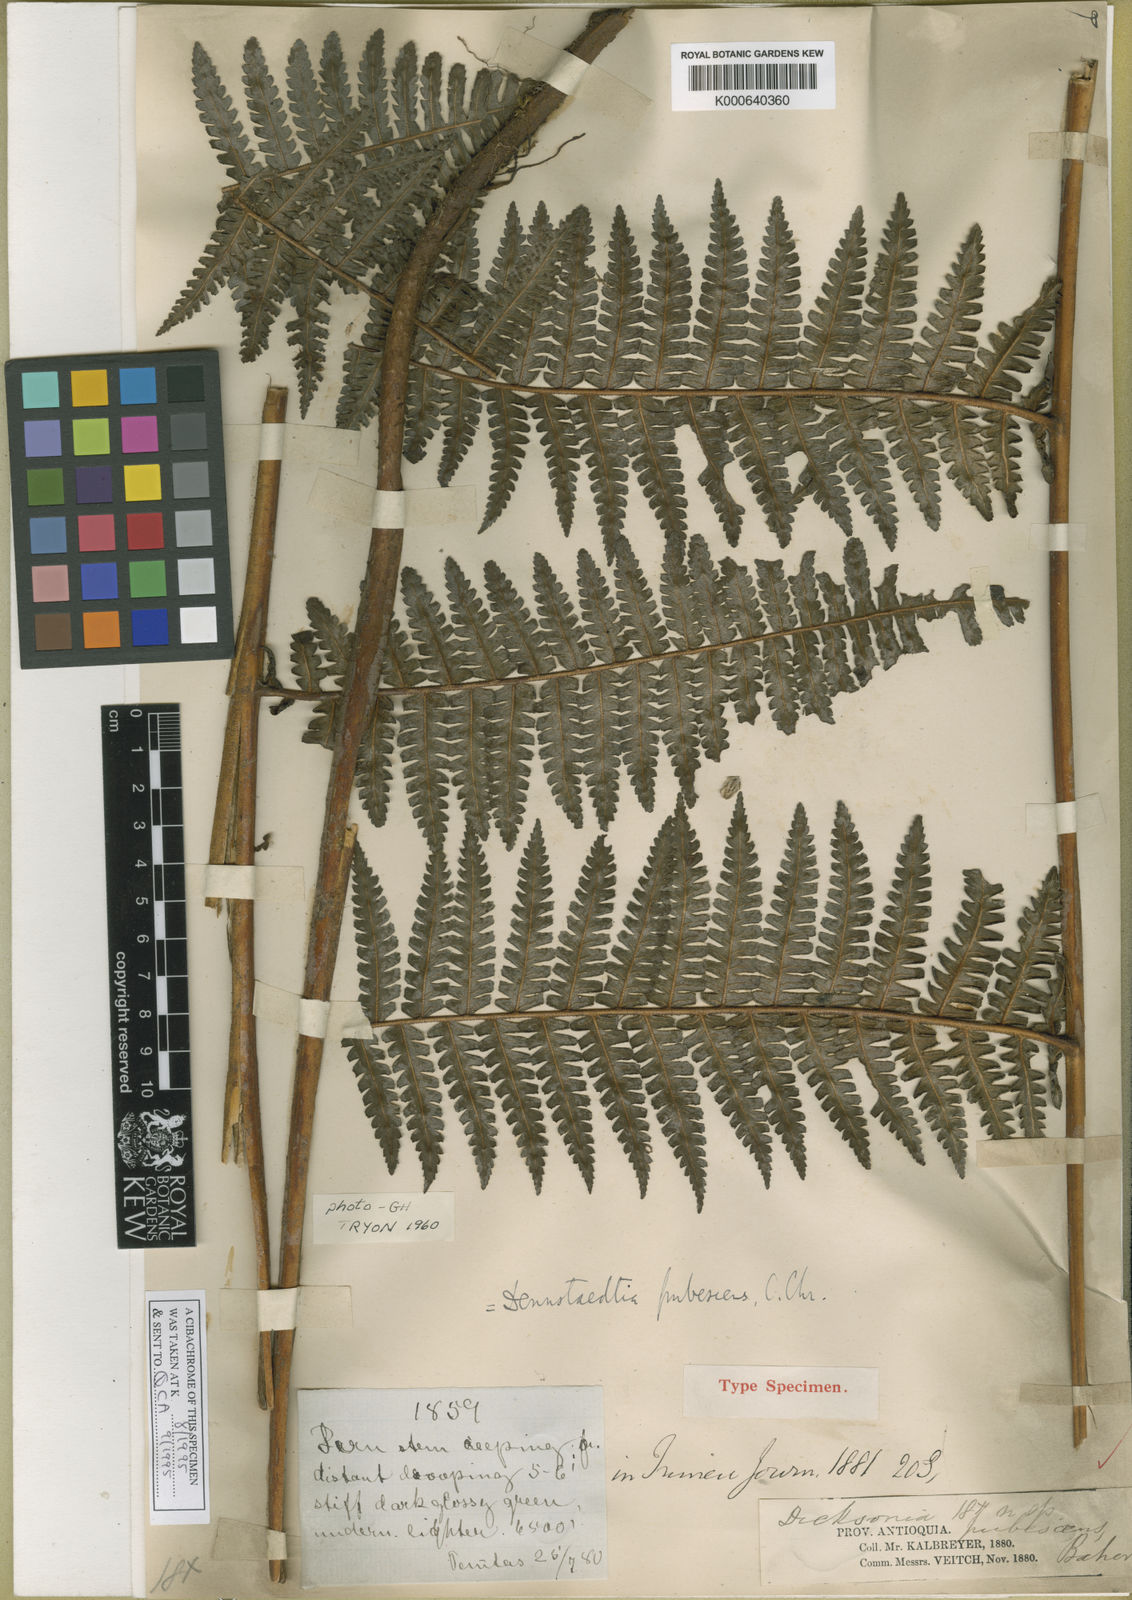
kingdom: Plantae
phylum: Tracheophyta
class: Polypodiopsida
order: Polypodiales
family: Dennstaedtiaceae
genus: Dennstaedtia
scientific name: Dennstaedtia obtusifolia
